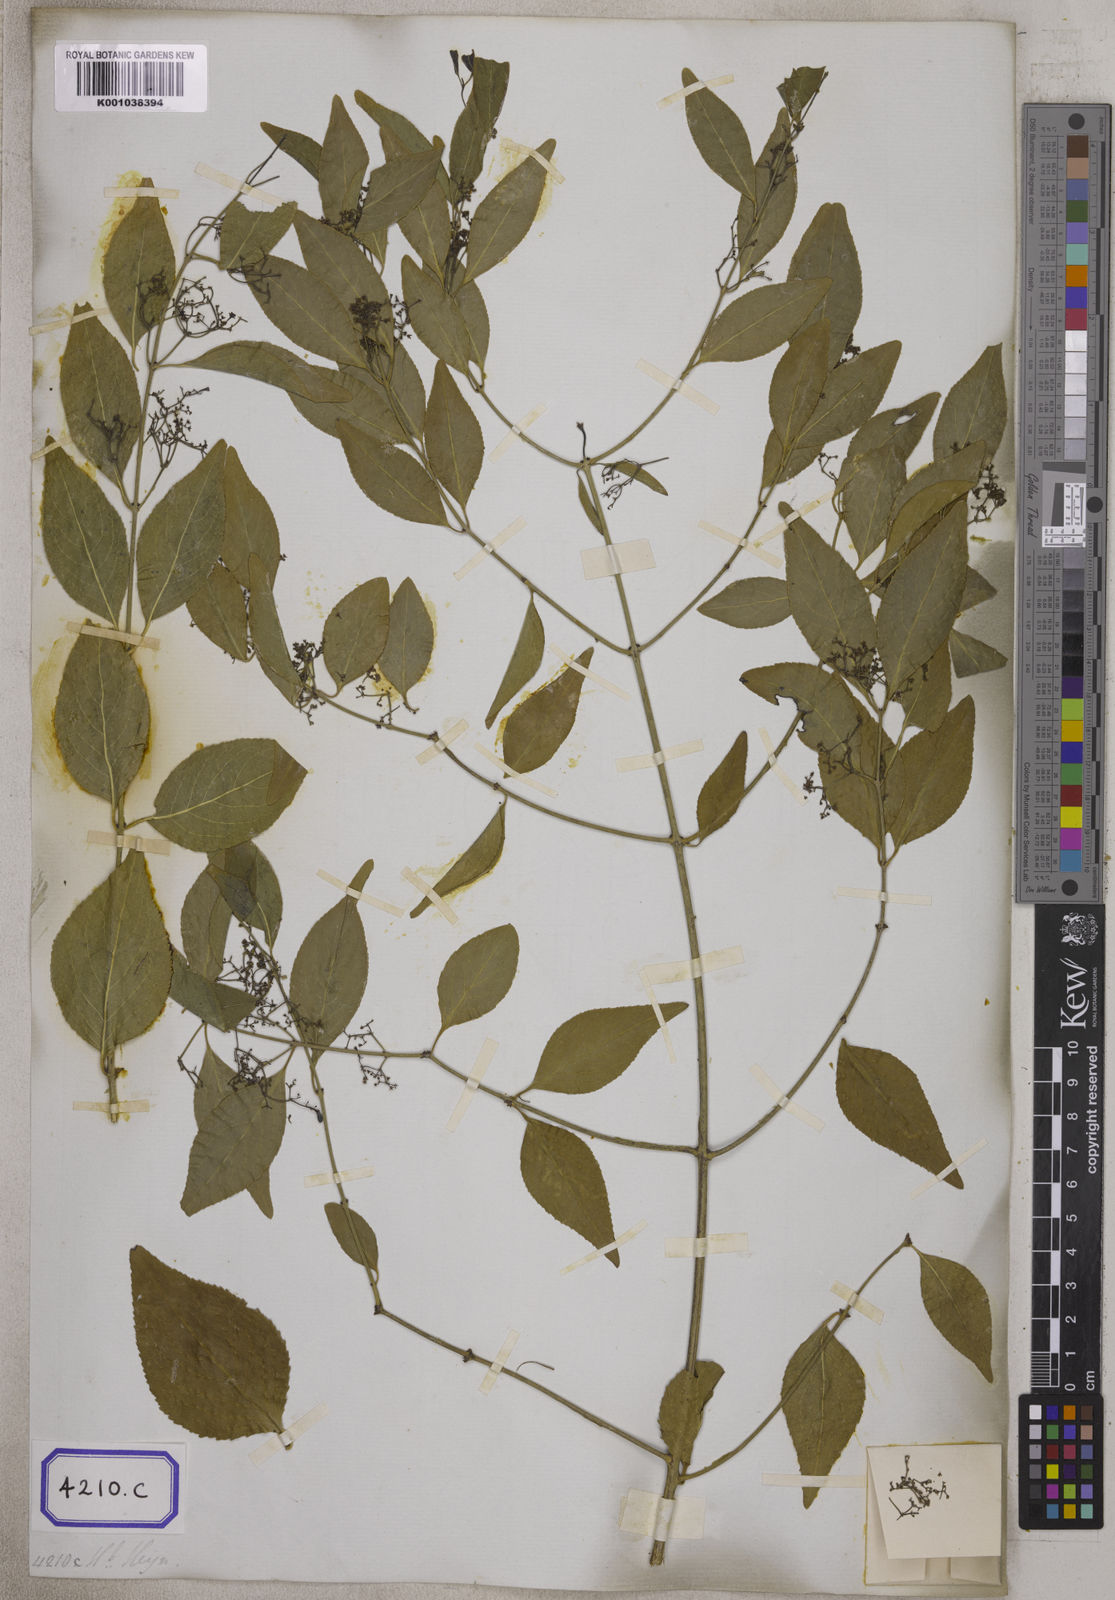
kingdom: Plantae
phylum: Tracheophyta
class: Magnoliopsida
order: Celastrales
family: Celastraceae
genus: Reissantia
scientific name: Reissantia indica
